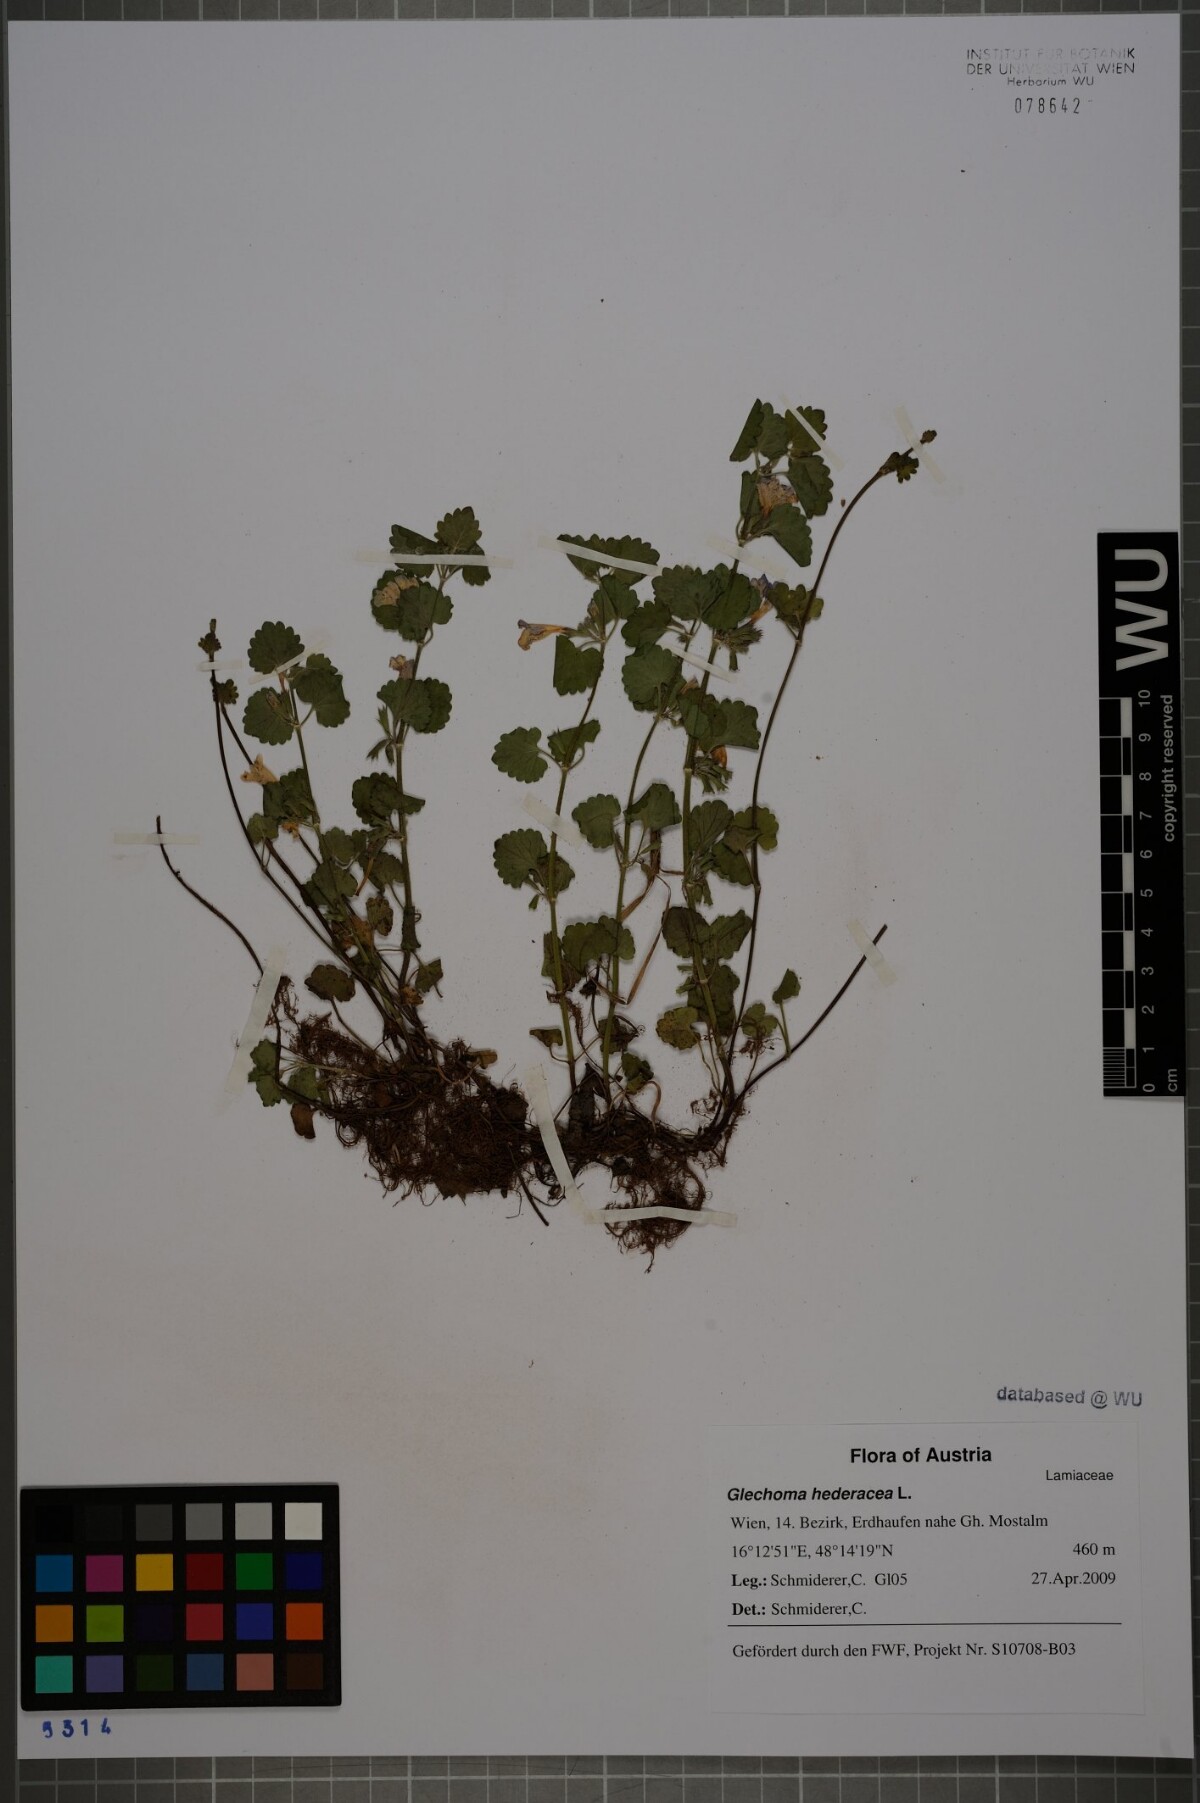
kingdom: Plantae
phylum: Tracheophyta
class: Magnoliopsida
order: Lamiales
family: Lamiaceae
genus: Glechoma
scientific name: Glechoma hederacea
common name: Ground ivy
